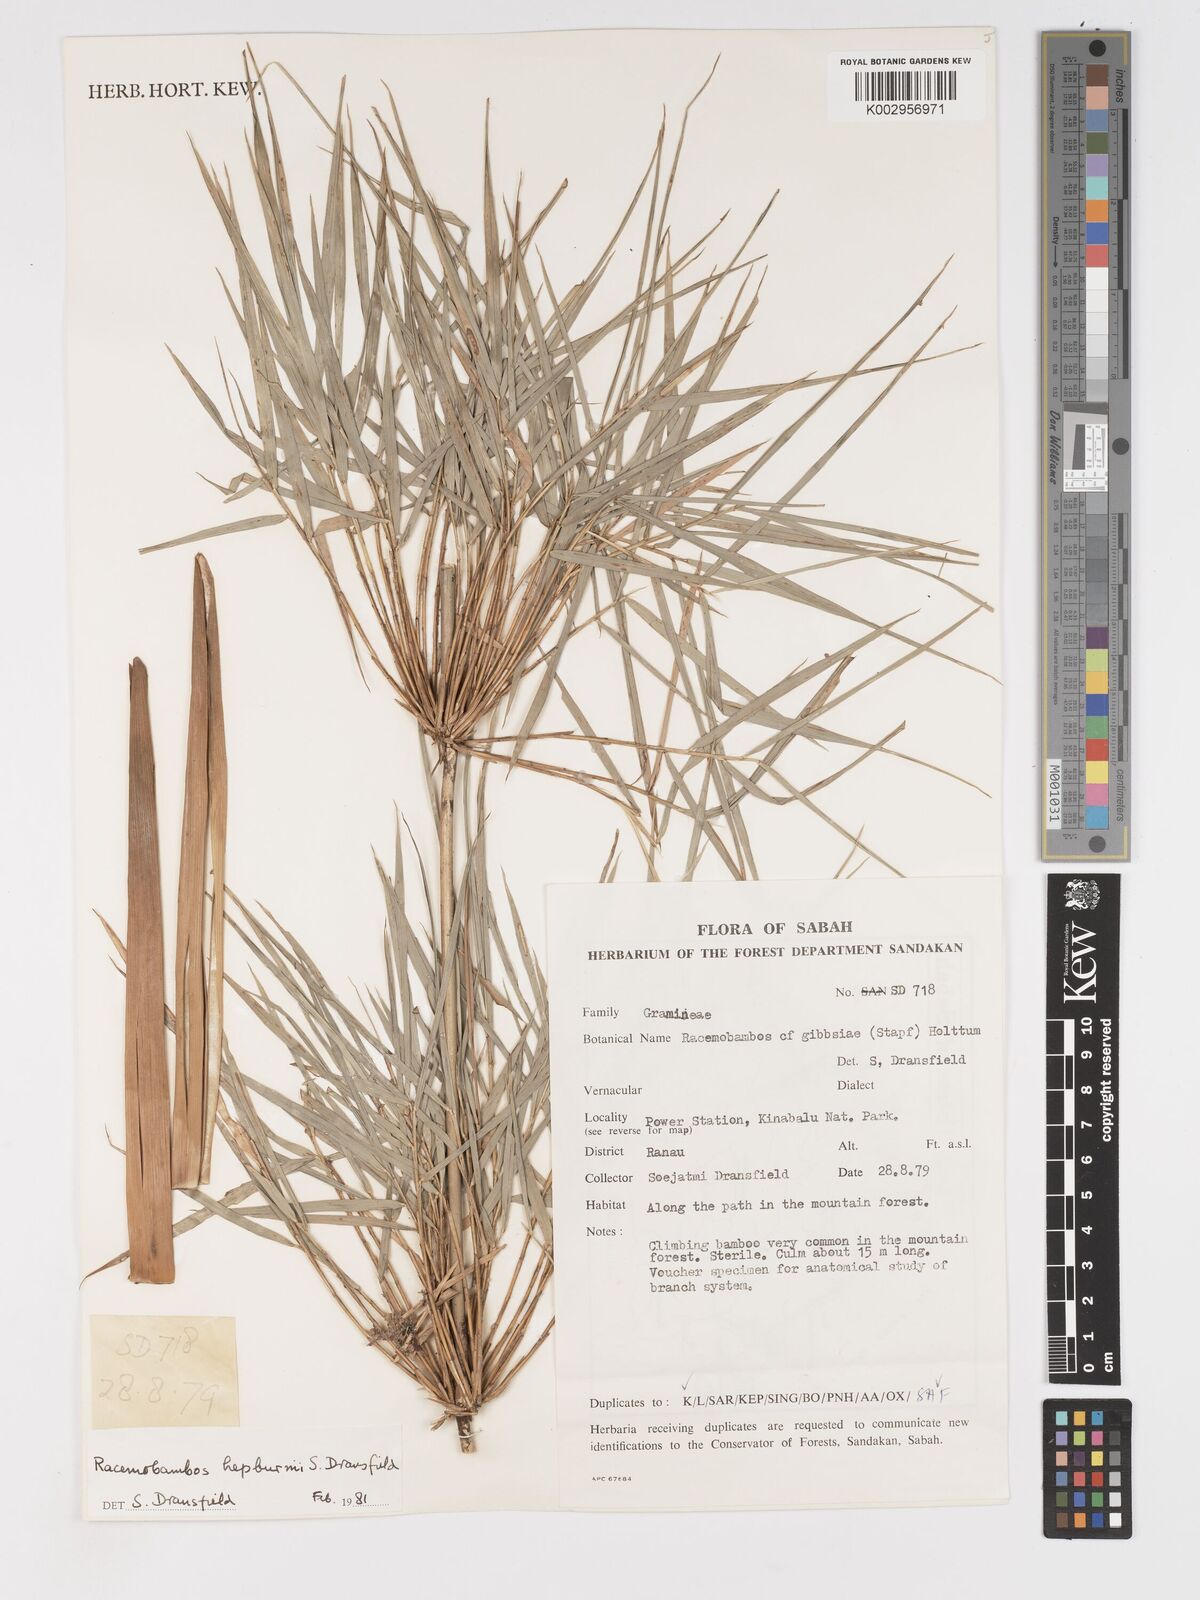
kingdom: Plantae
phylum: Tracheophyta
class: Liliopsida
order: Poales
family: Poaceae
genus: Racemobambos
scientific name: Racemobambos hepburnii
